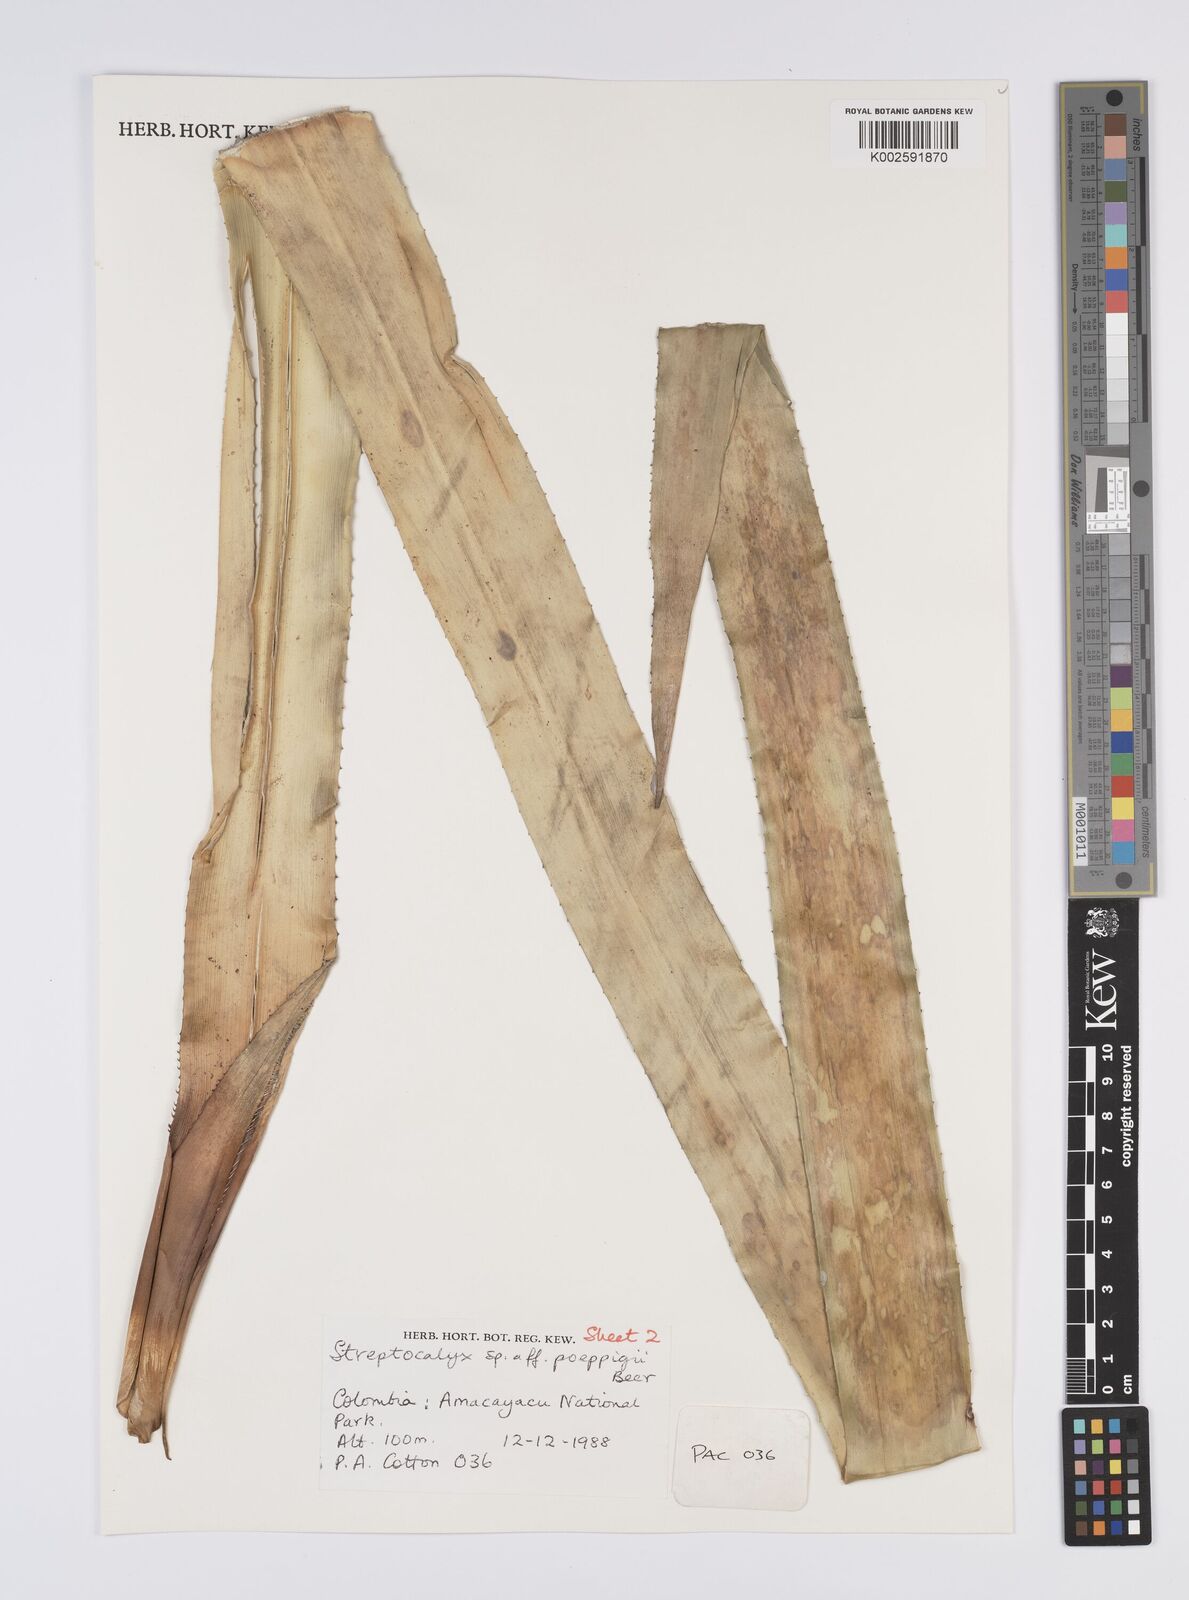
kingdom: Plantae
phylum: Tracheophyta
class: Liliopsida
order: Poales
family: Bromeliaceae
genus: Aechmea
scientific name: Aechmea
